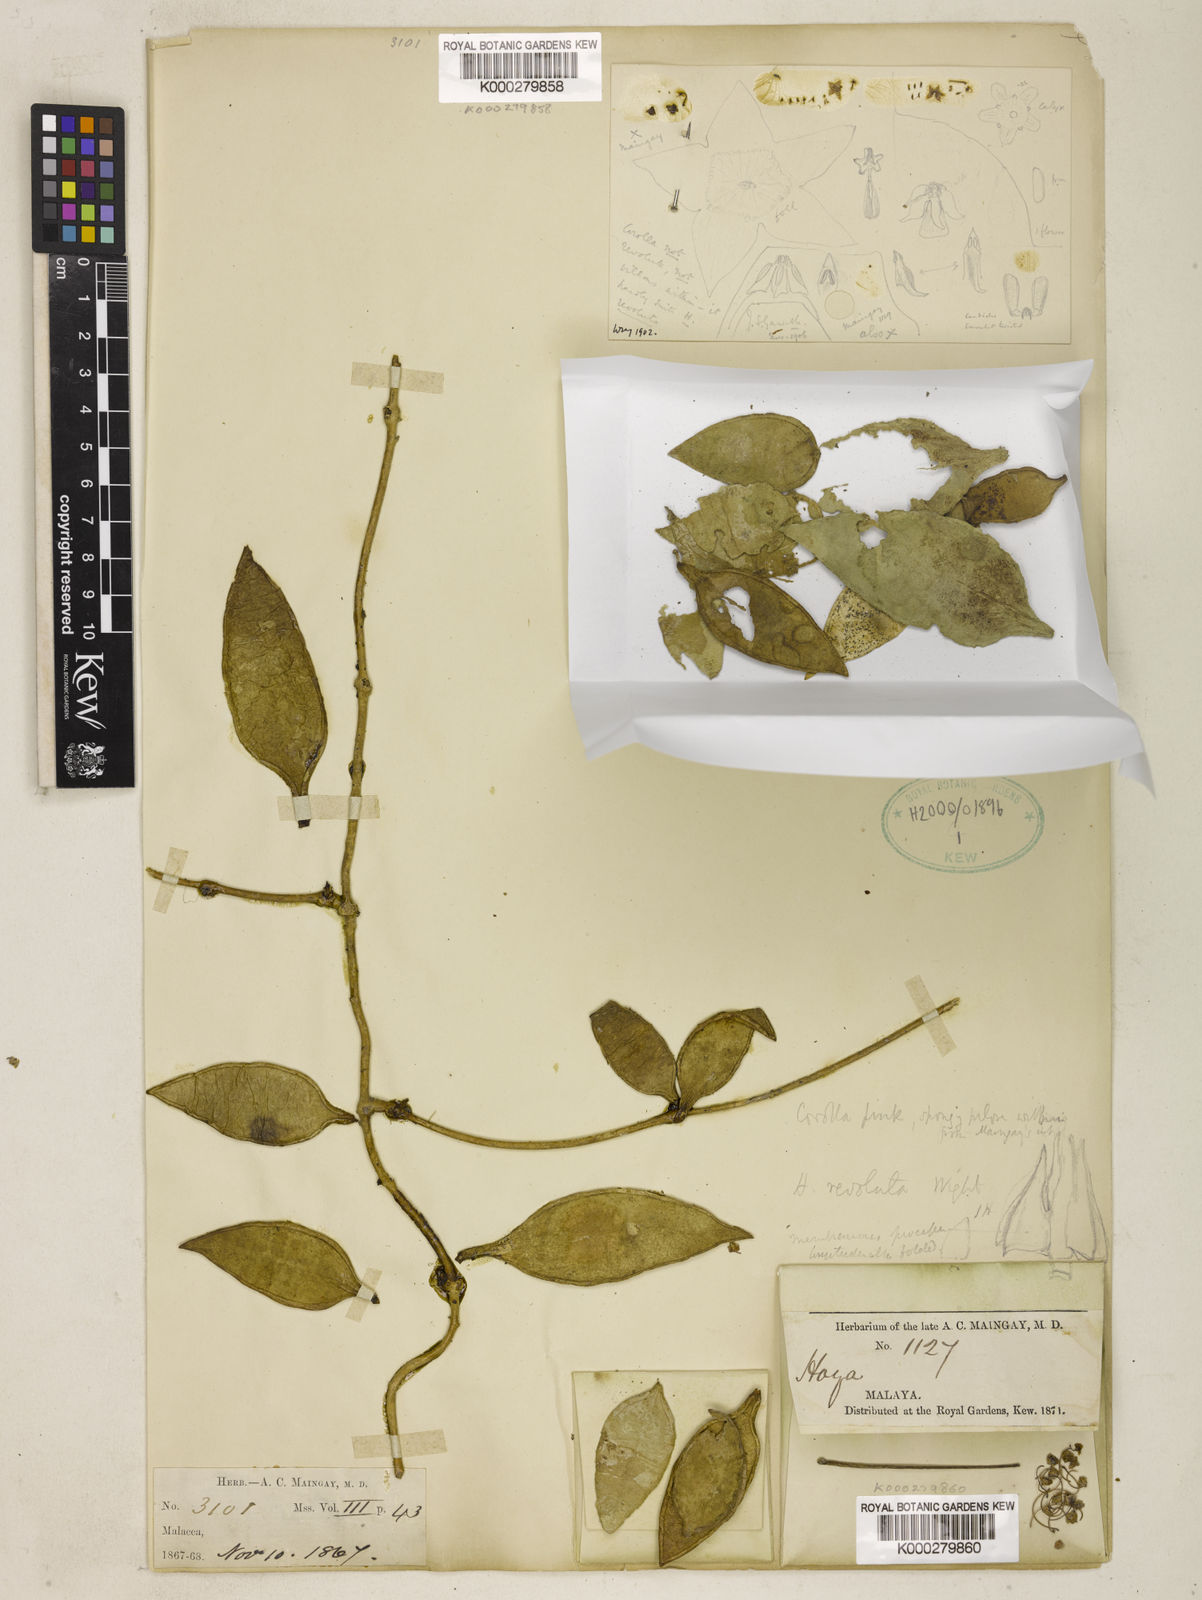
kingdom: Plantae
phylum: Tracheophyta
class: Magnoliopsida
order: Gentianales
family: Apocynaceae
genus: Hoya
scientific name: Hoya caudata
